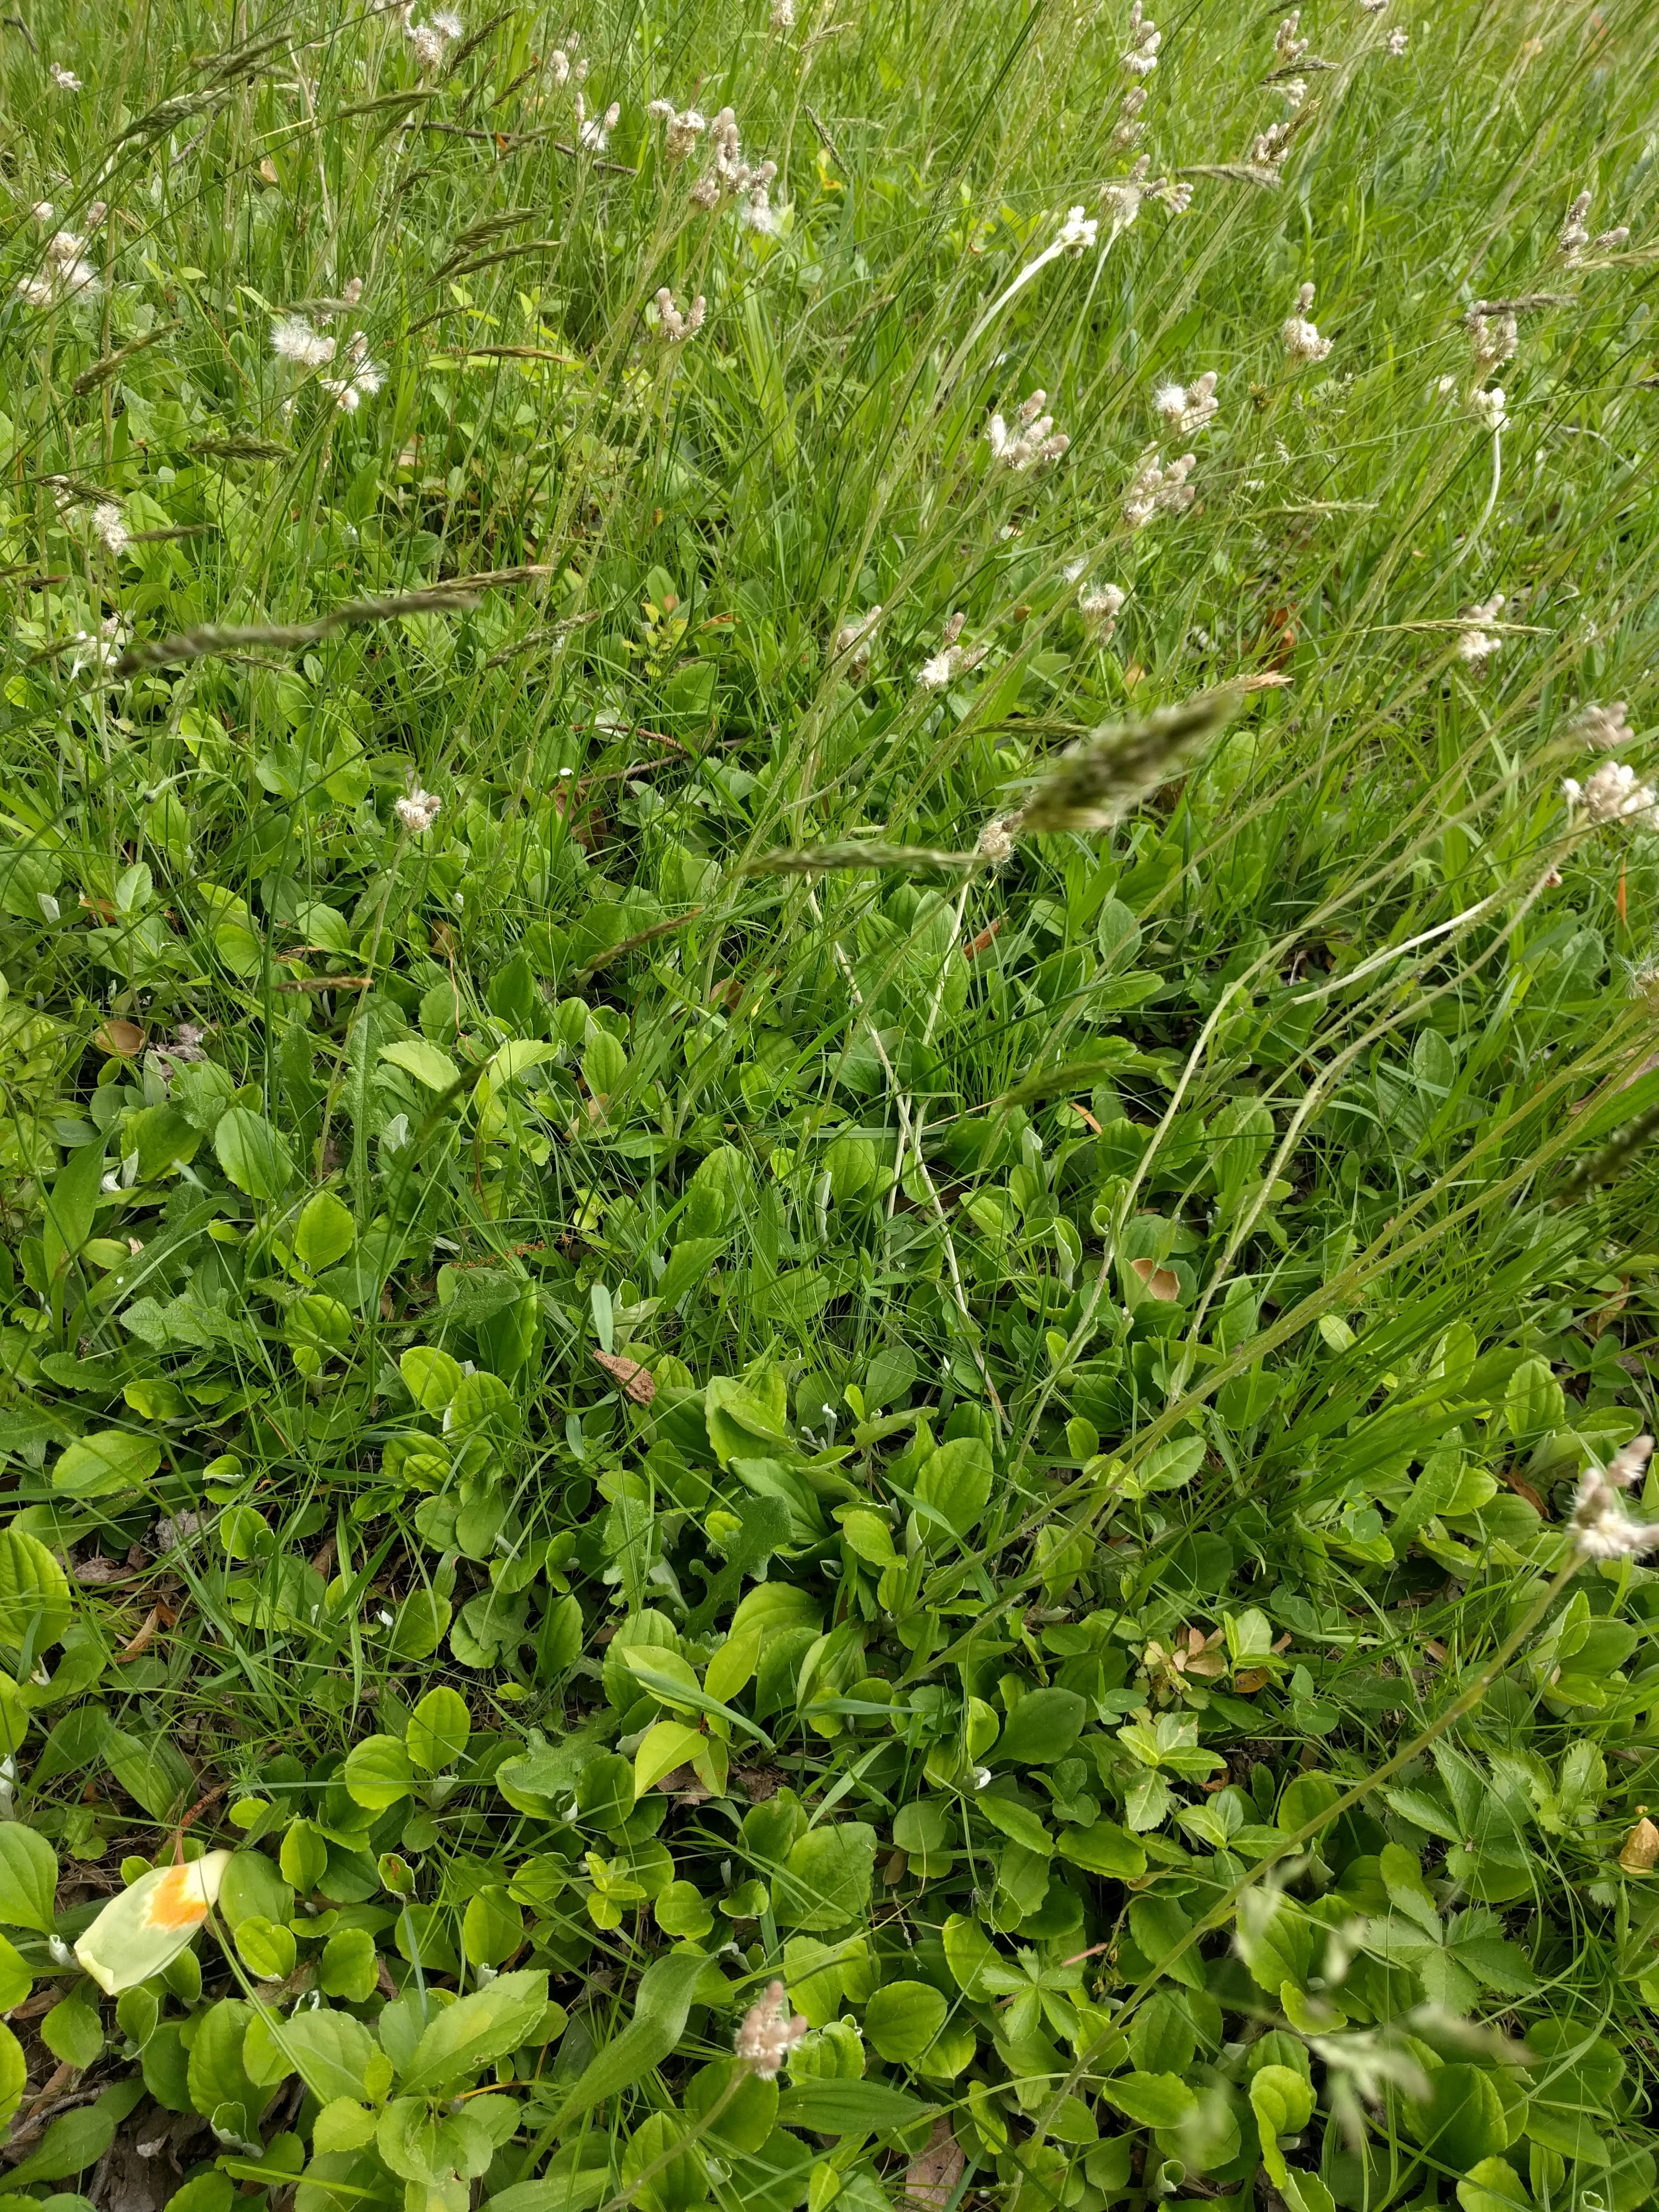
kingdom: Plantae
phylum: Tracheophyta
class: Magnoliopsida
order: Asterales
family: Asteraceae
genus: Antennaria
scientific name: Antennaria parlinii
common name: Parlin's pussytoes
